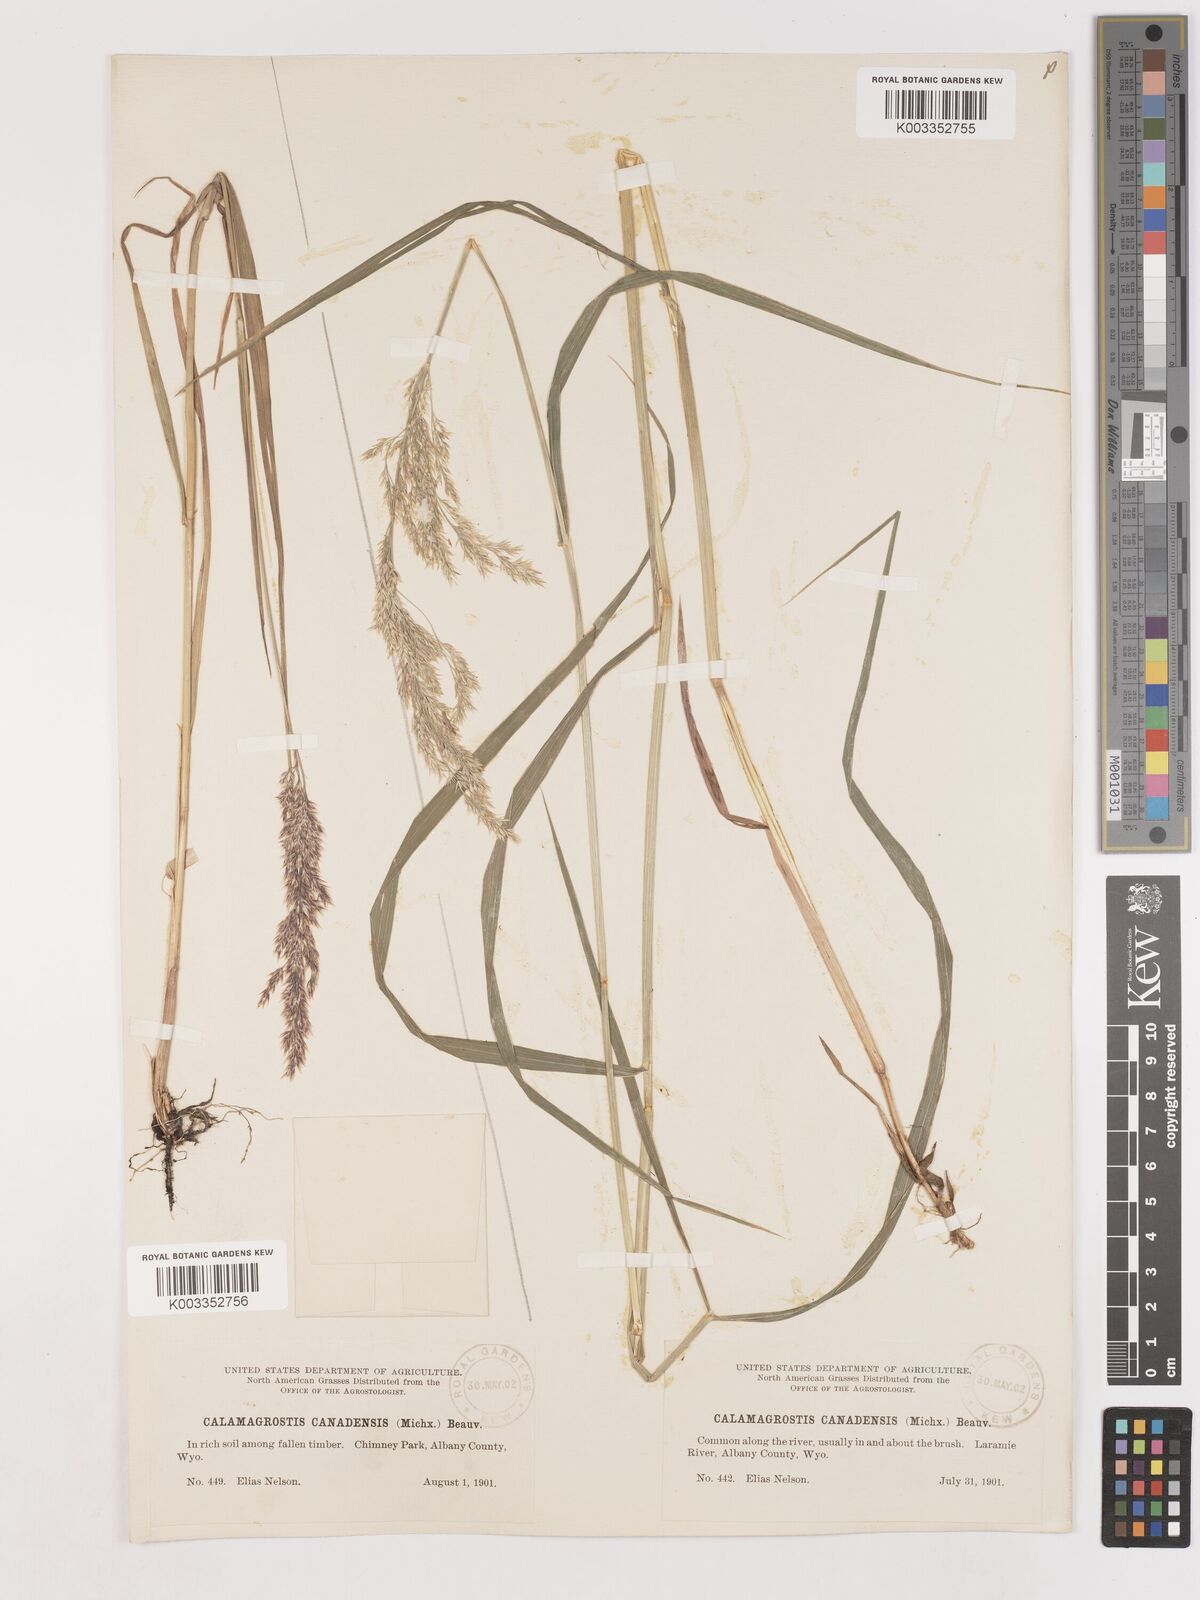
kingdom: Plantae
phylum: Tracheophyta
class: Liliopsida
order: Poales
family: Poaceae
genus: Calamagrostis
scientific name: Calamagrostis canadensis
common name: Canada bluejoint
